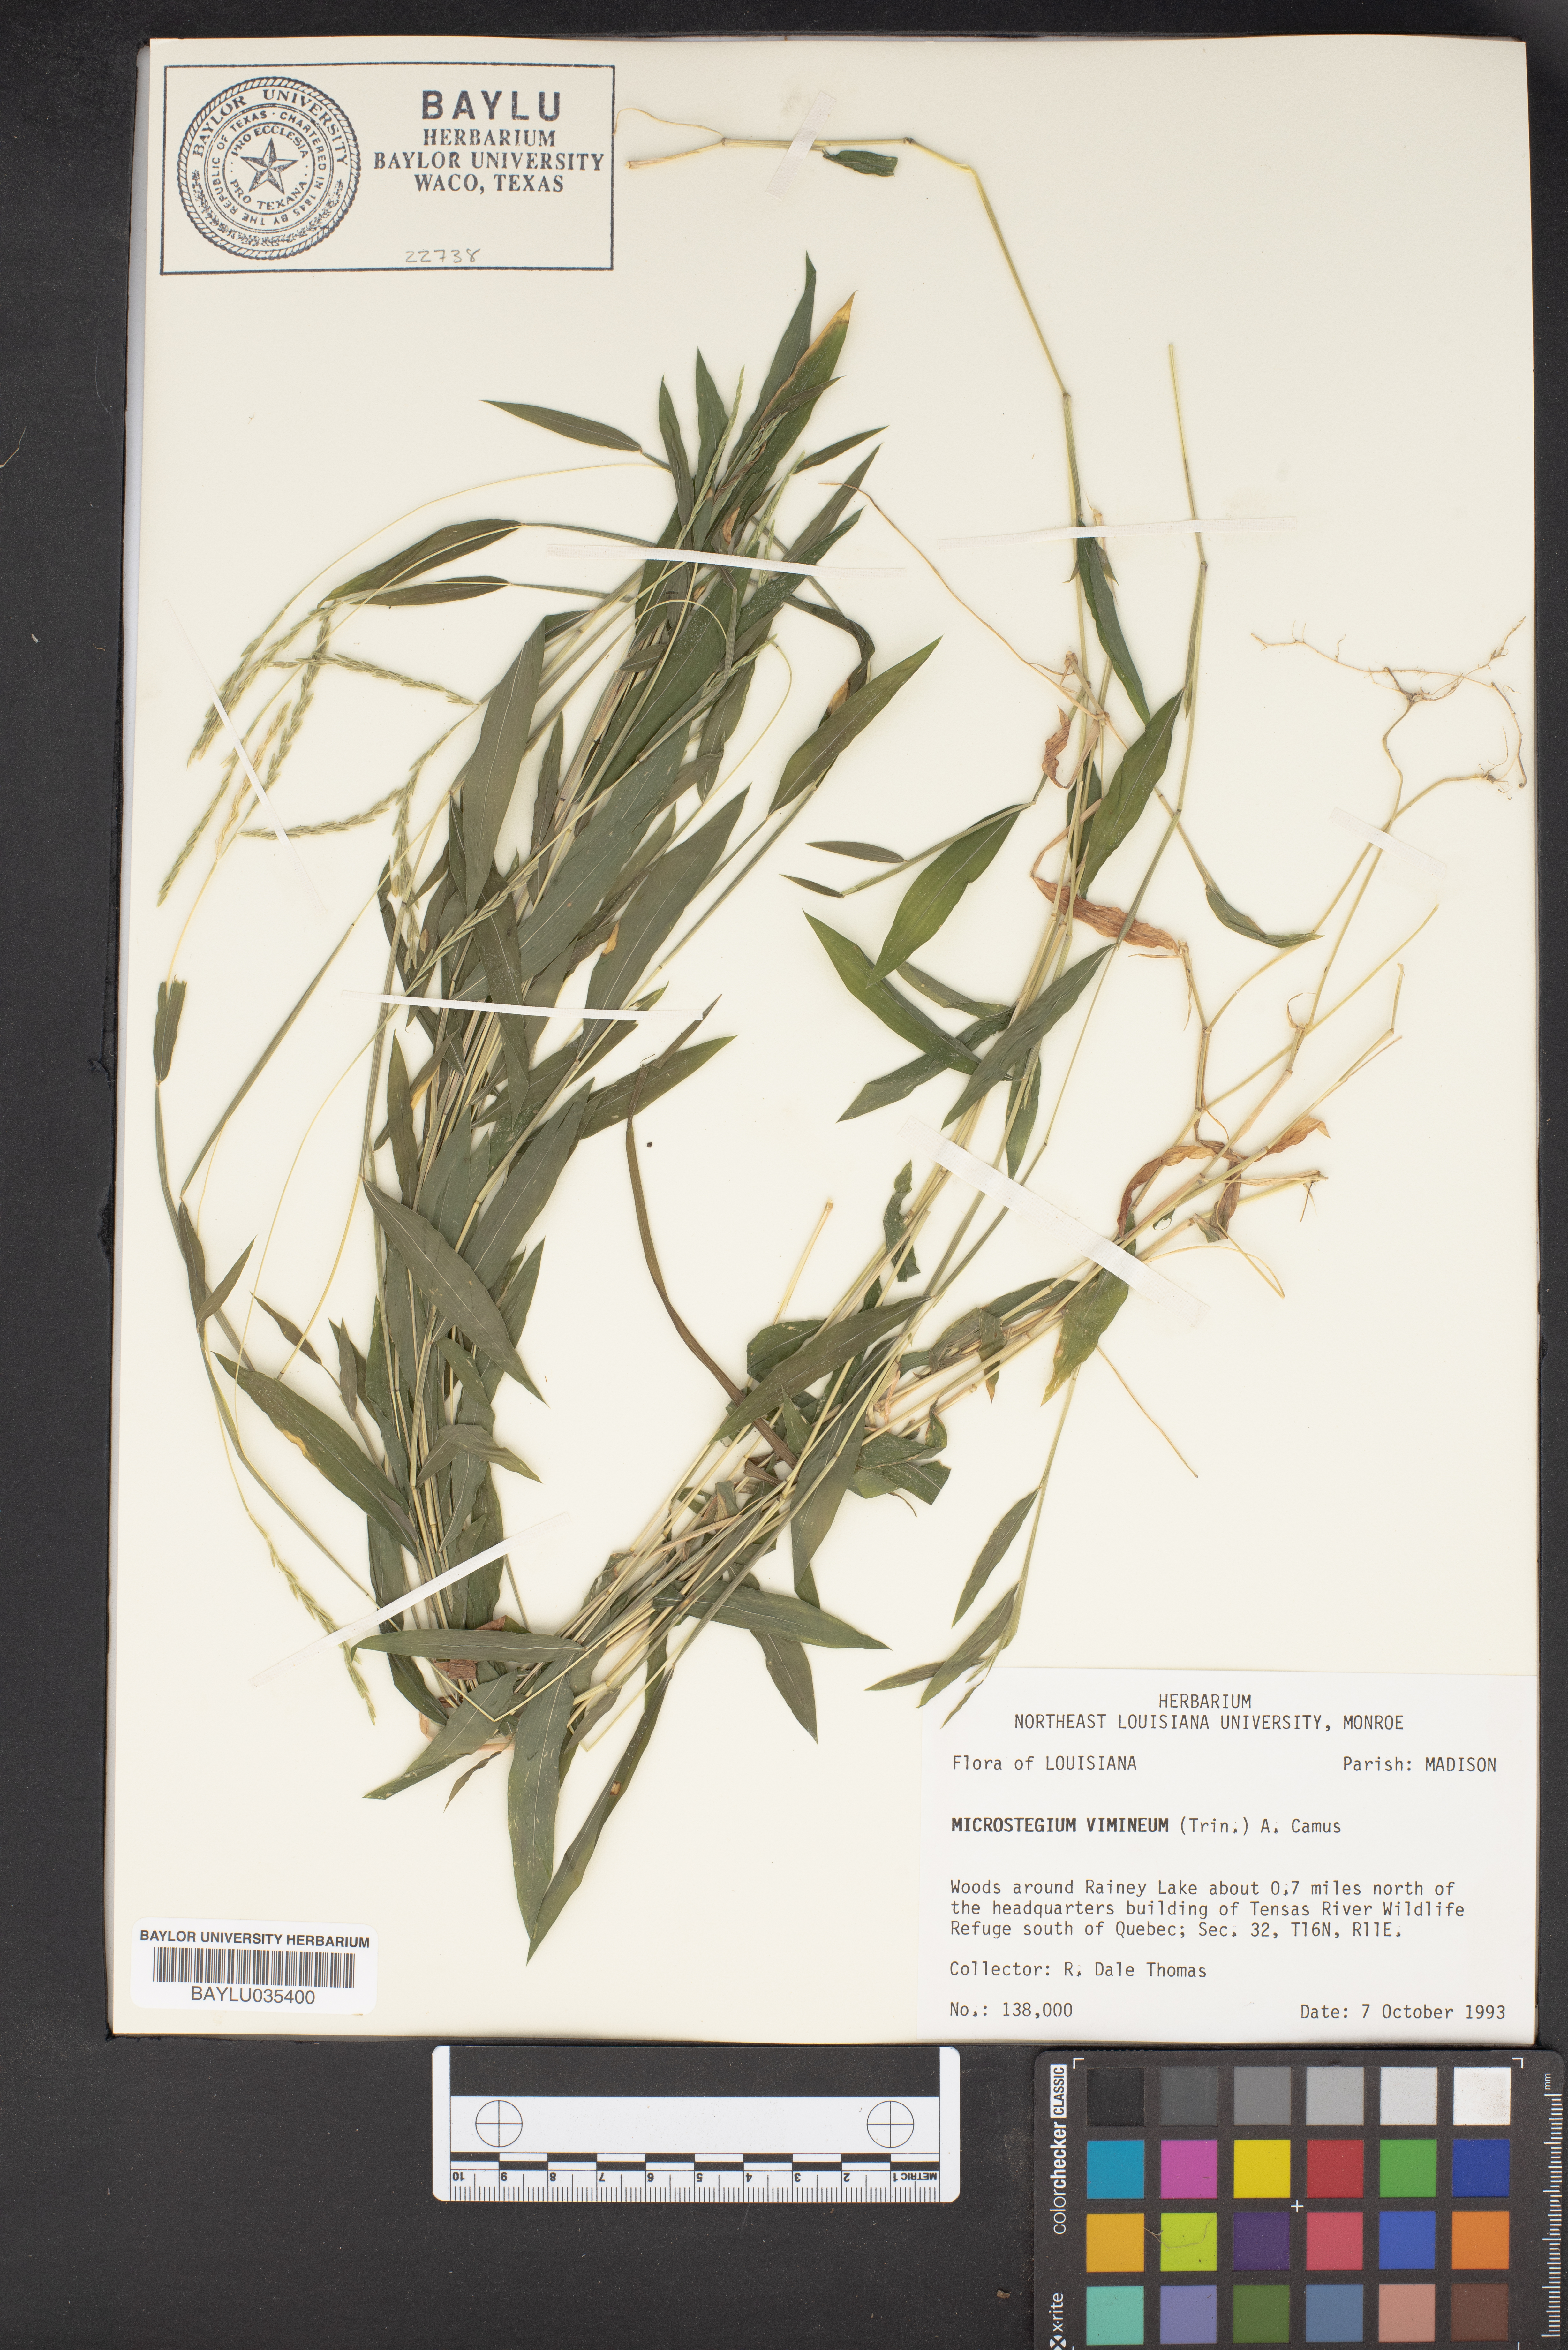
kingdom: Plantae
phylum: Tracheophyta
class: Liliopsida
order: Poales
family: Poaceae
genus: Microstegium
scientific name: Microstegium vimineum
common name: Japanese stiltgrass
